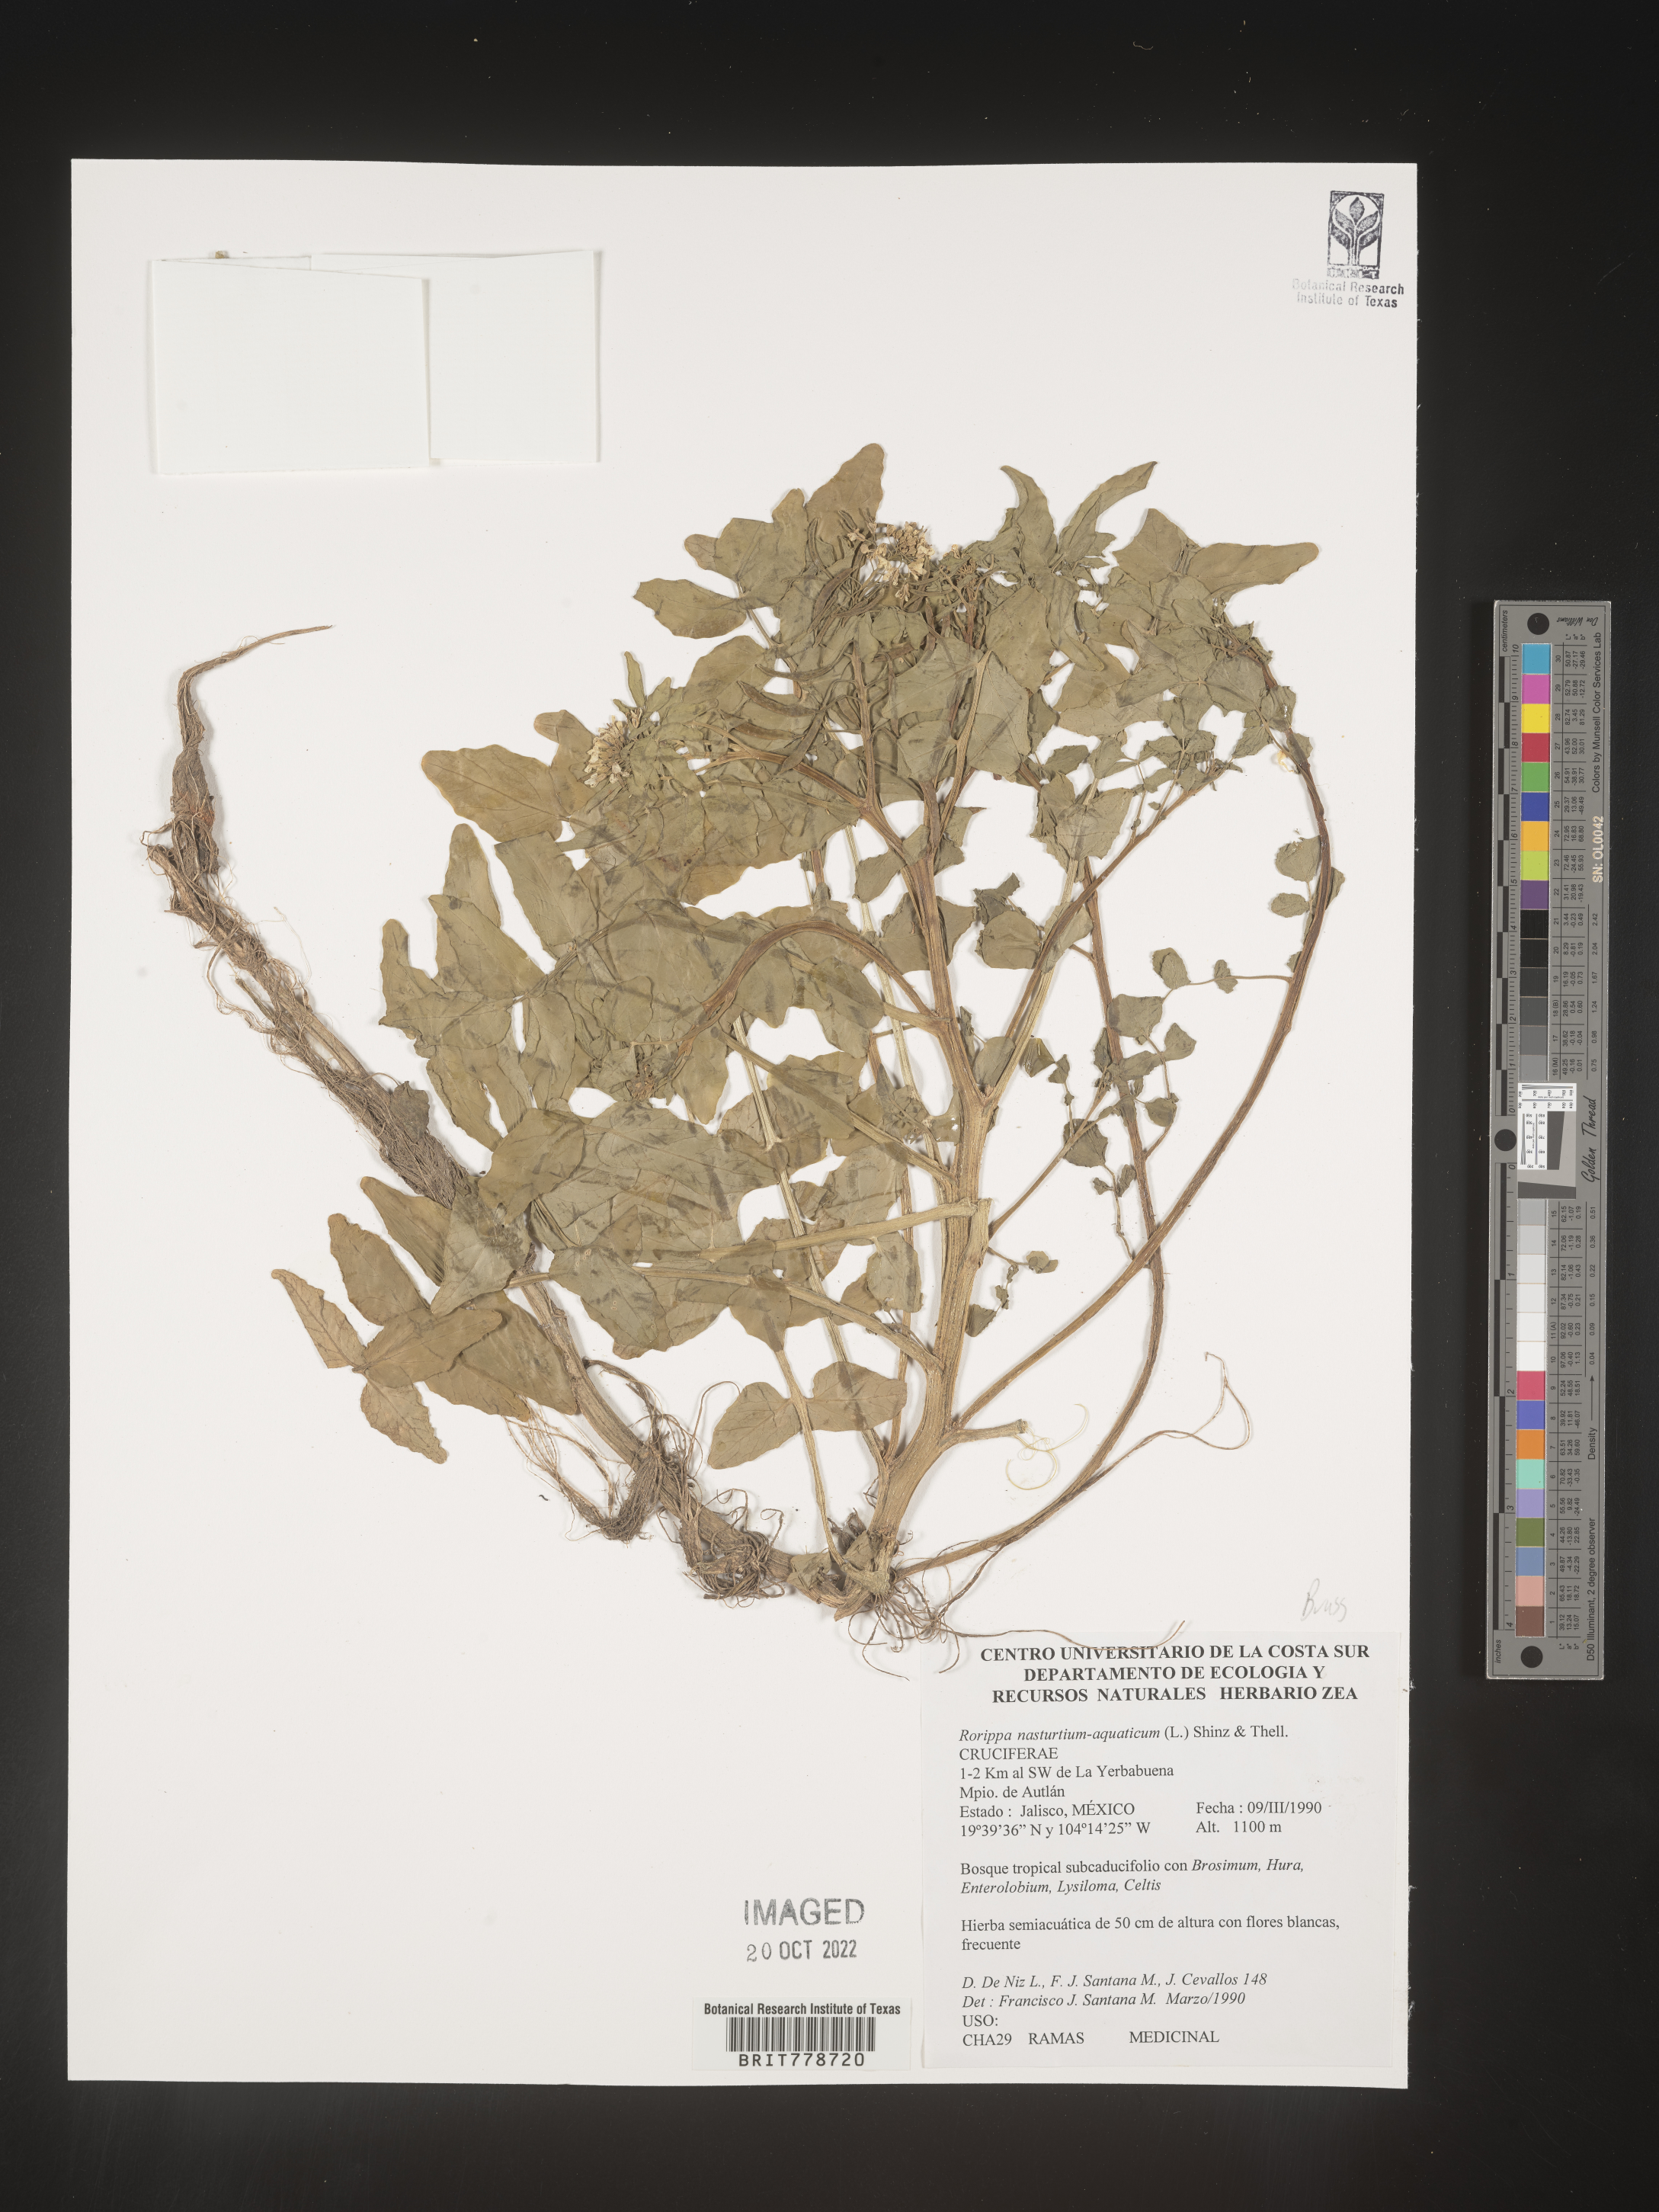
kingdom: Plantae
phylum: Tracheophyta
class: Magnoliopsida
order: Brassicales
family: Brassicaceae
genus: Rorippa
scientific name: Rorippa
